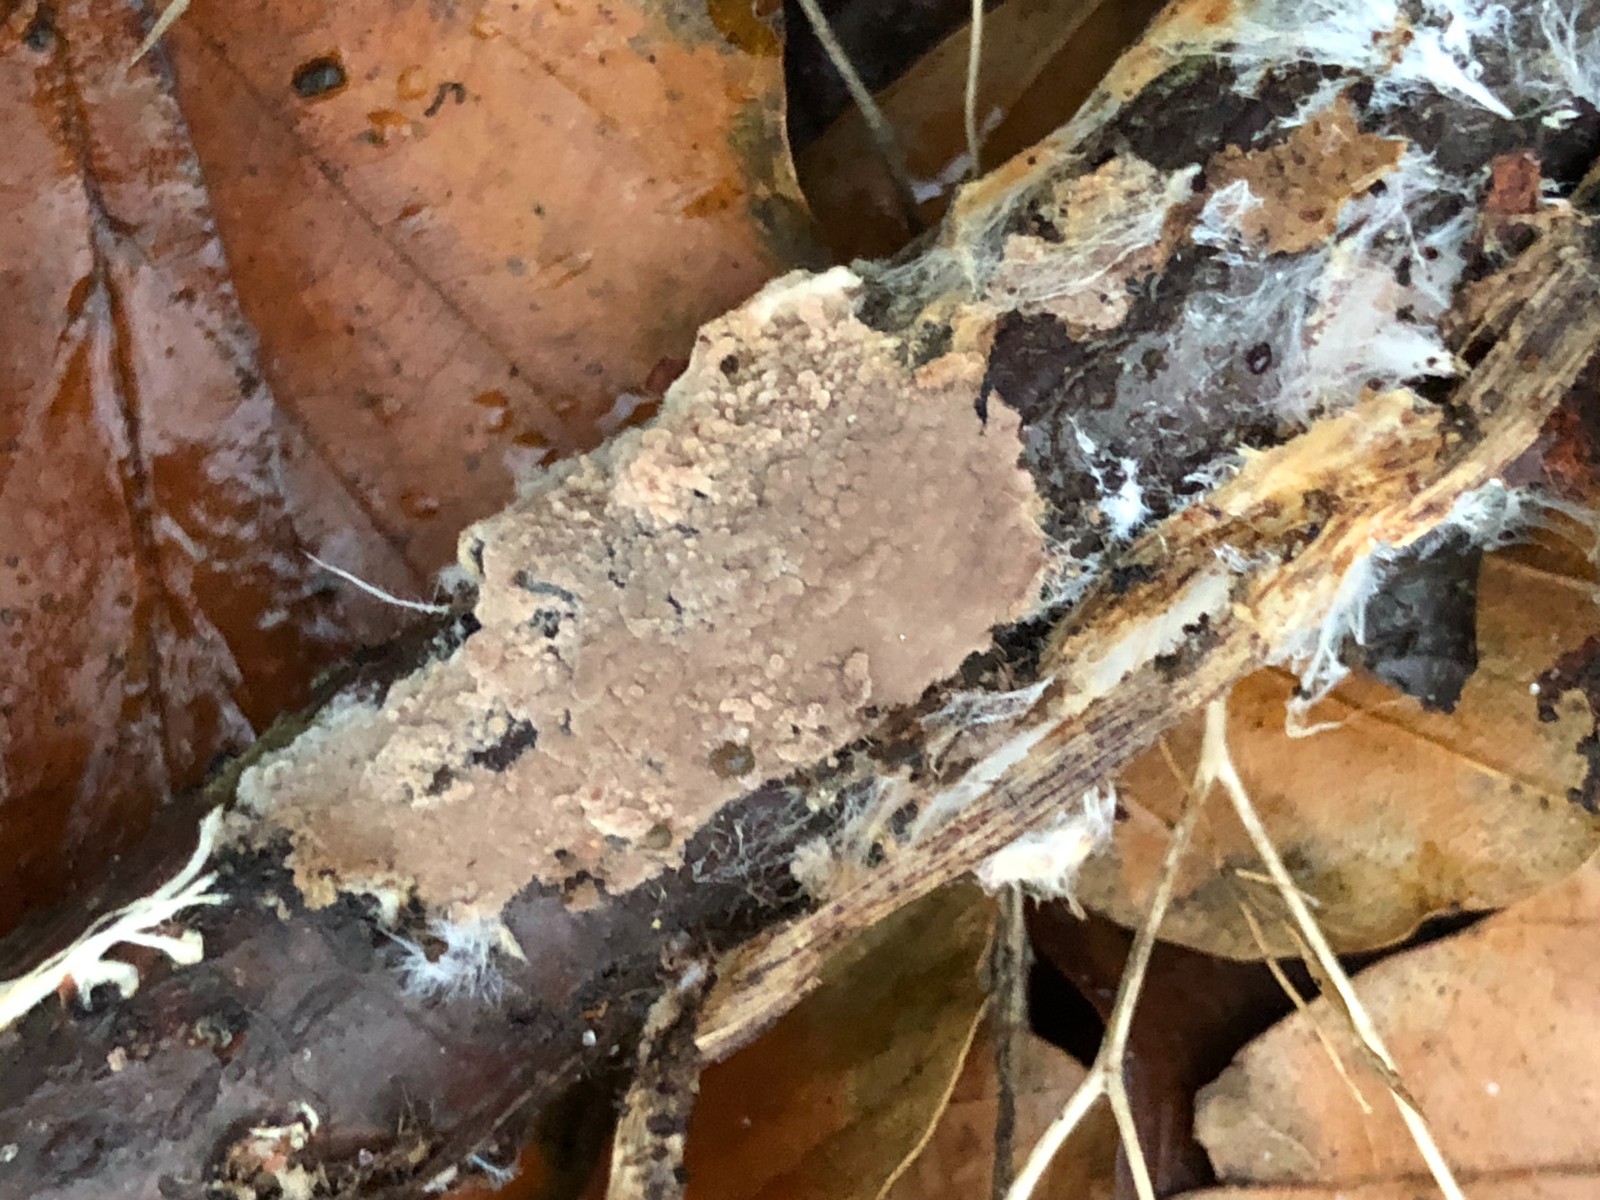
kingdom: Fungi
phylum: Basidiomycota
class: Agaricomycetes
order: Thelephorales
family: Thelephoraceae
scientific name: Thelephoraceae
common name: frynsesvampfamilien
